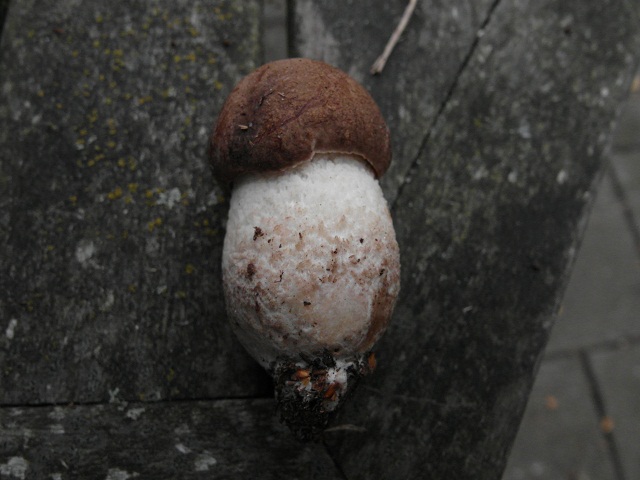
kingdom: Fungi
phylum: Basidiomycota
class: Agaricomycetes
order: Boletales
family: Boletaceae
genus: Leccinum
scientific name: Leccinum scabrum
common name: hvid skælrørhat
